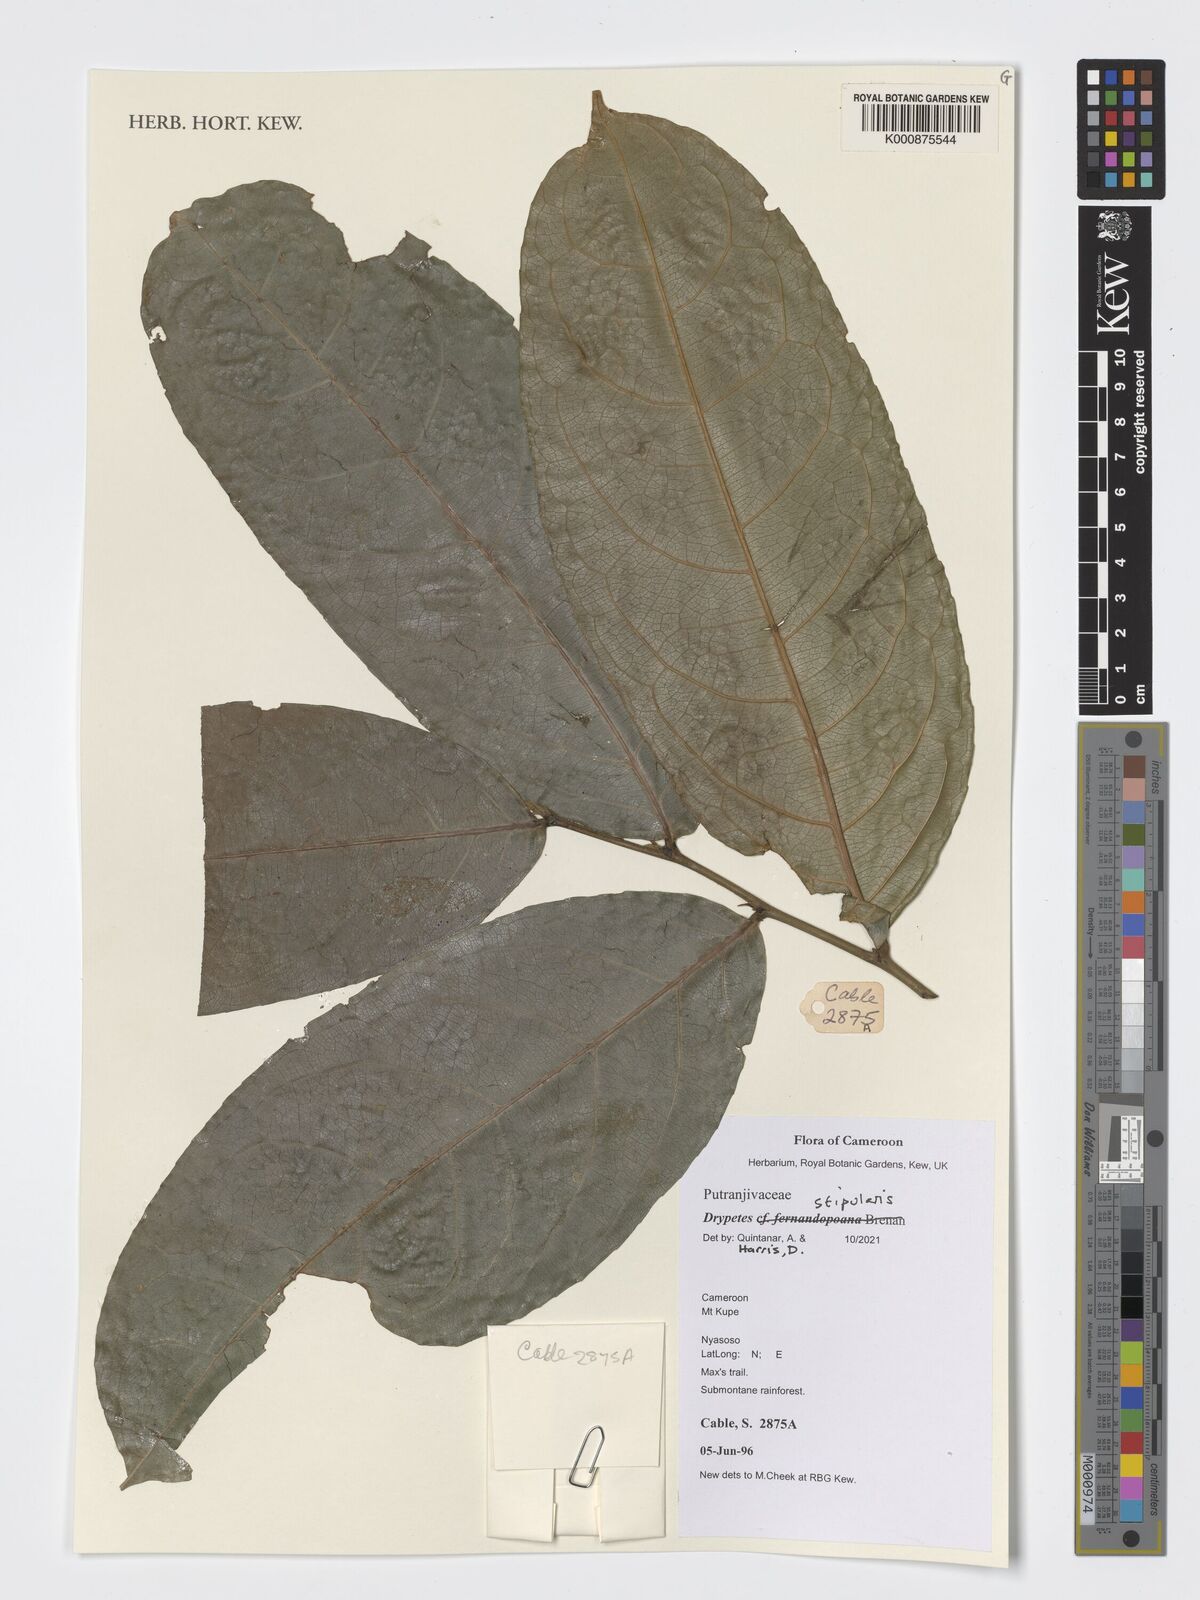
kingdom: Plantae
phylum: Tracheophyta
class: Magnoliopsida
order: Malpighiales
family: Putranjivaceae
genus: Drypetes
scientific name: Drypetes stipularis
